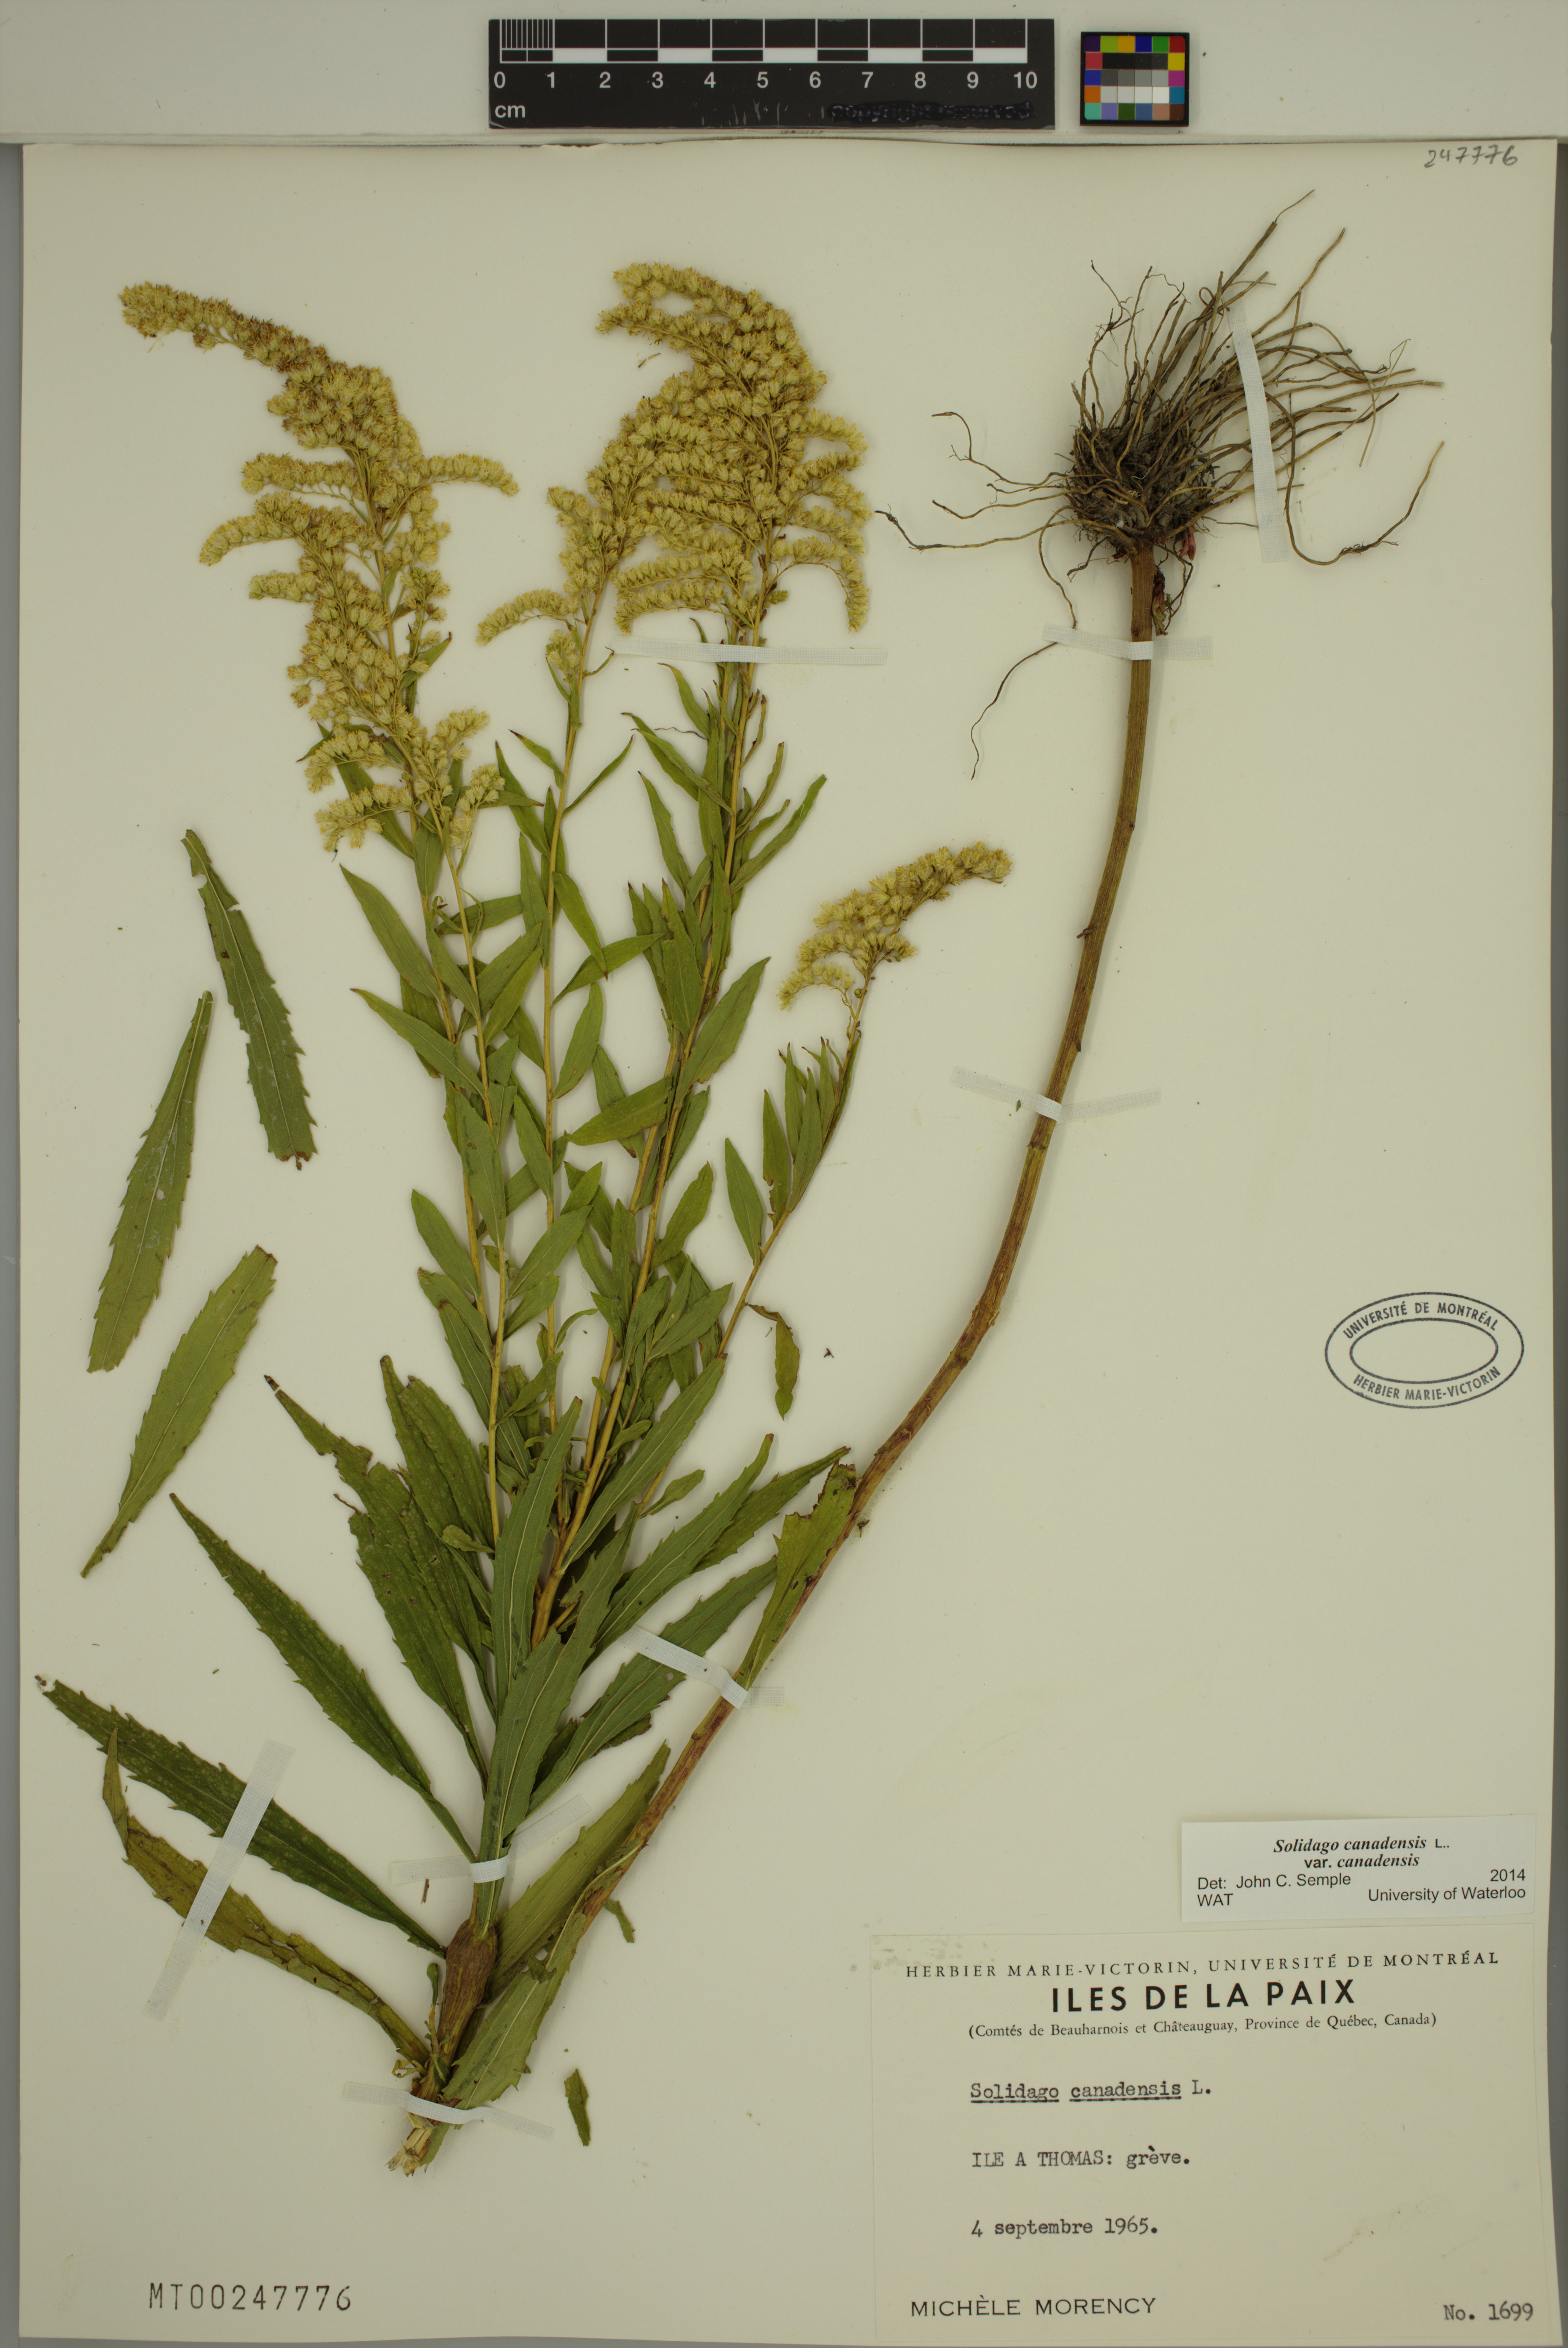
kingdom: Plantae
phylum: Tracheophyta
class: Magnoliopsida
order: Asterales
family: Asteraceae
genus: Solidago
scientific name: Solidago canadensis
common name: Canada goldenrod
